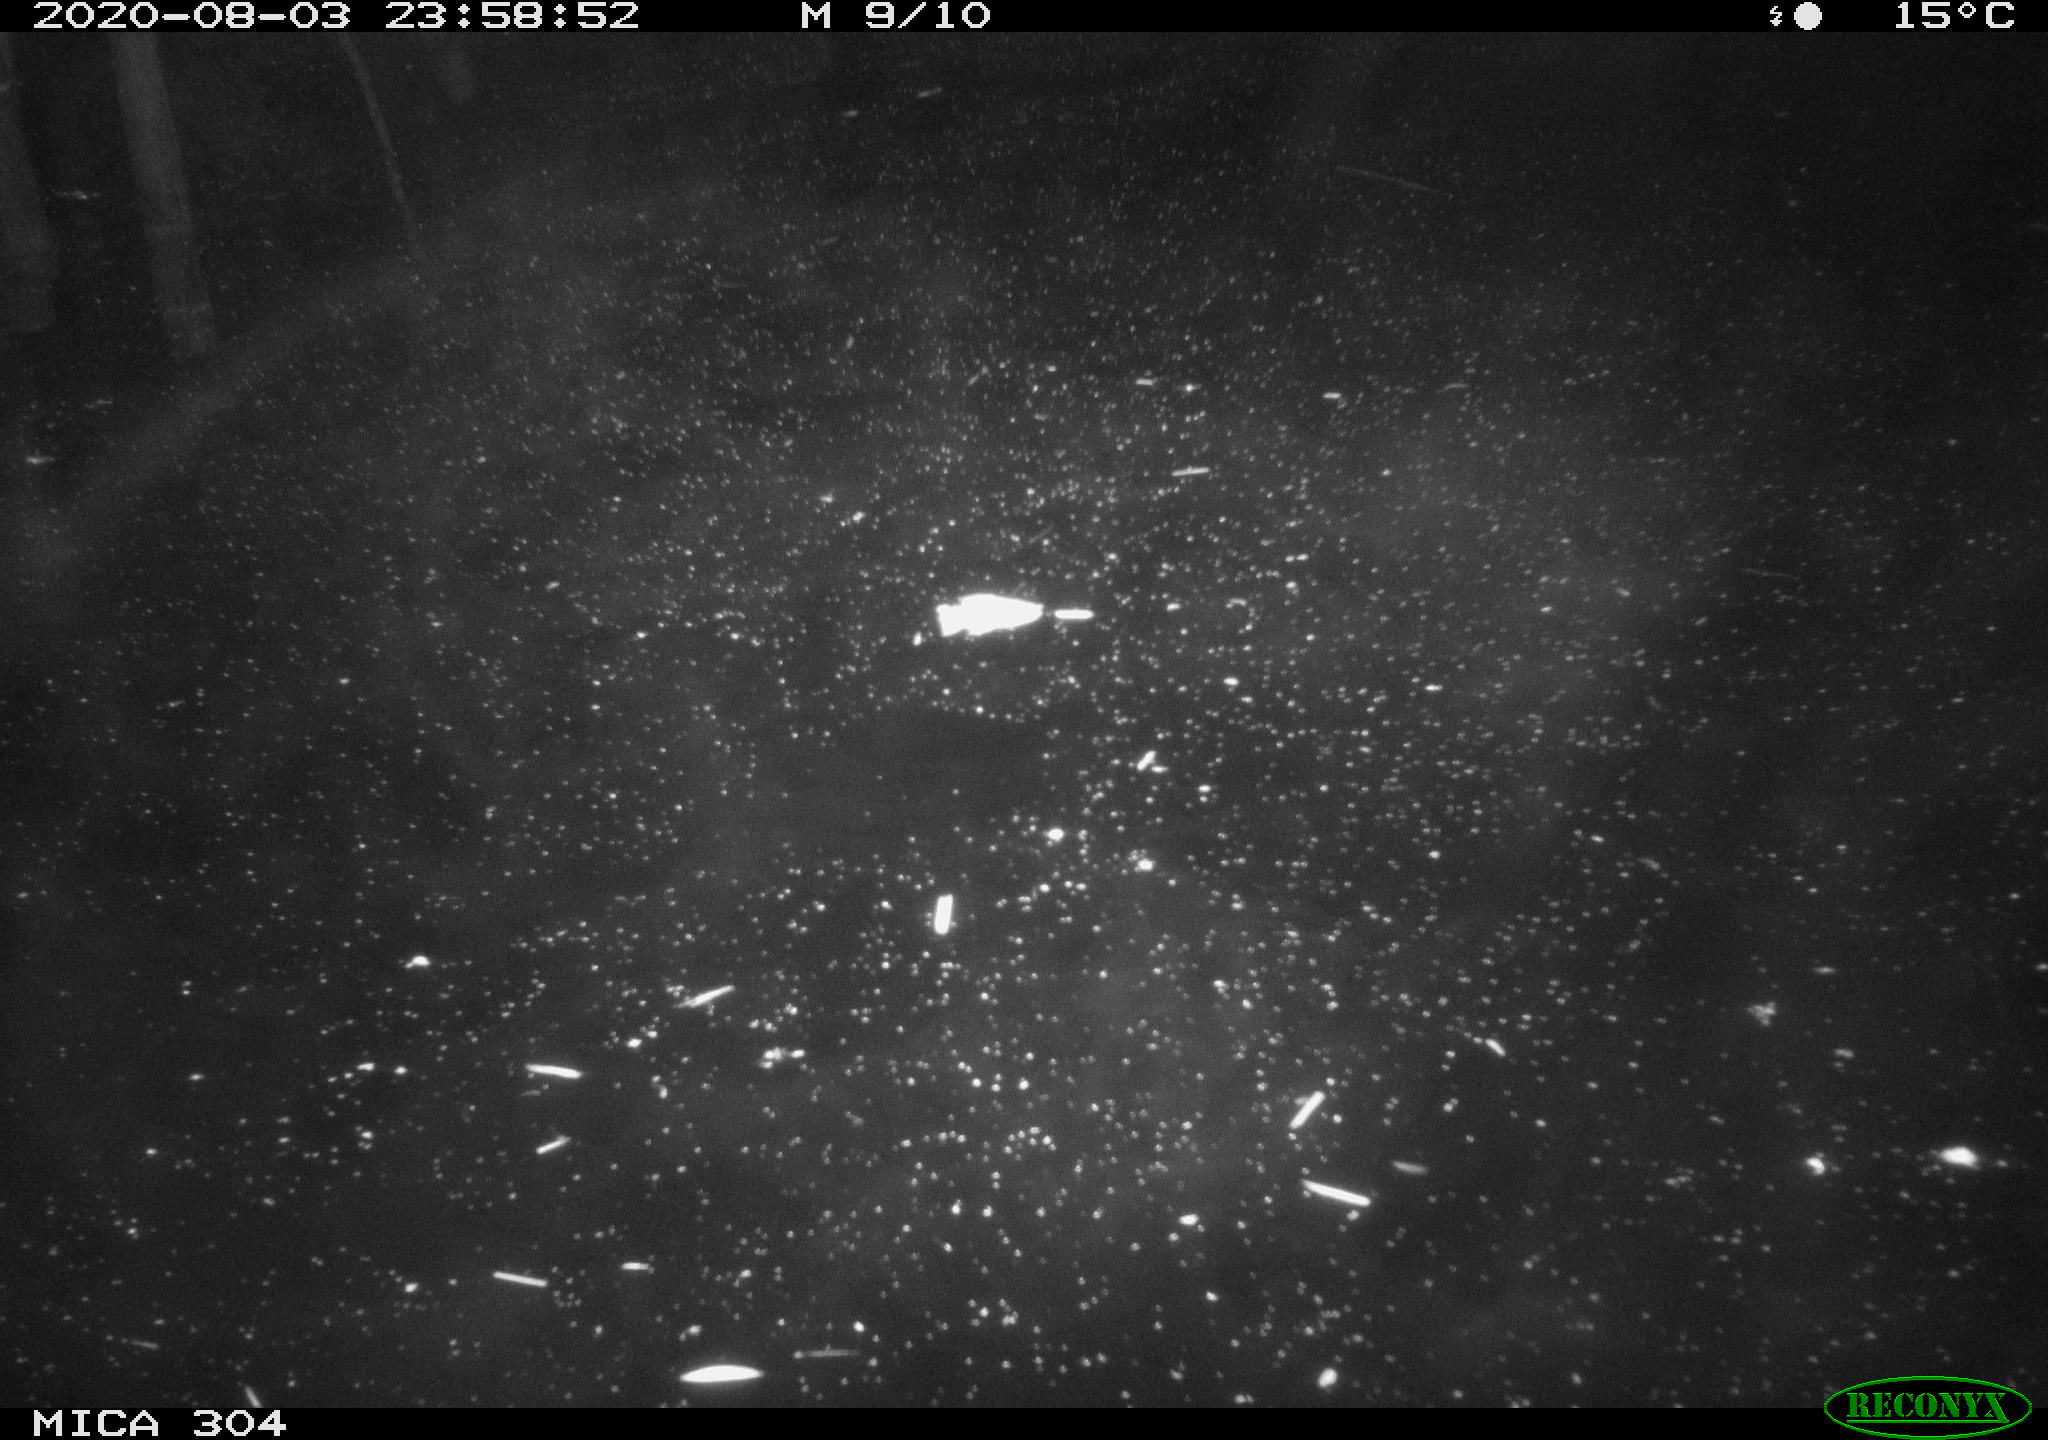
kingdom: Animalia
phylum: Chordata
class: Mammalia
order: Rodentia
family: Cricetidae
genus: Ondatra
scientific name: Ondatra zibethicus
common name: Muskrat
